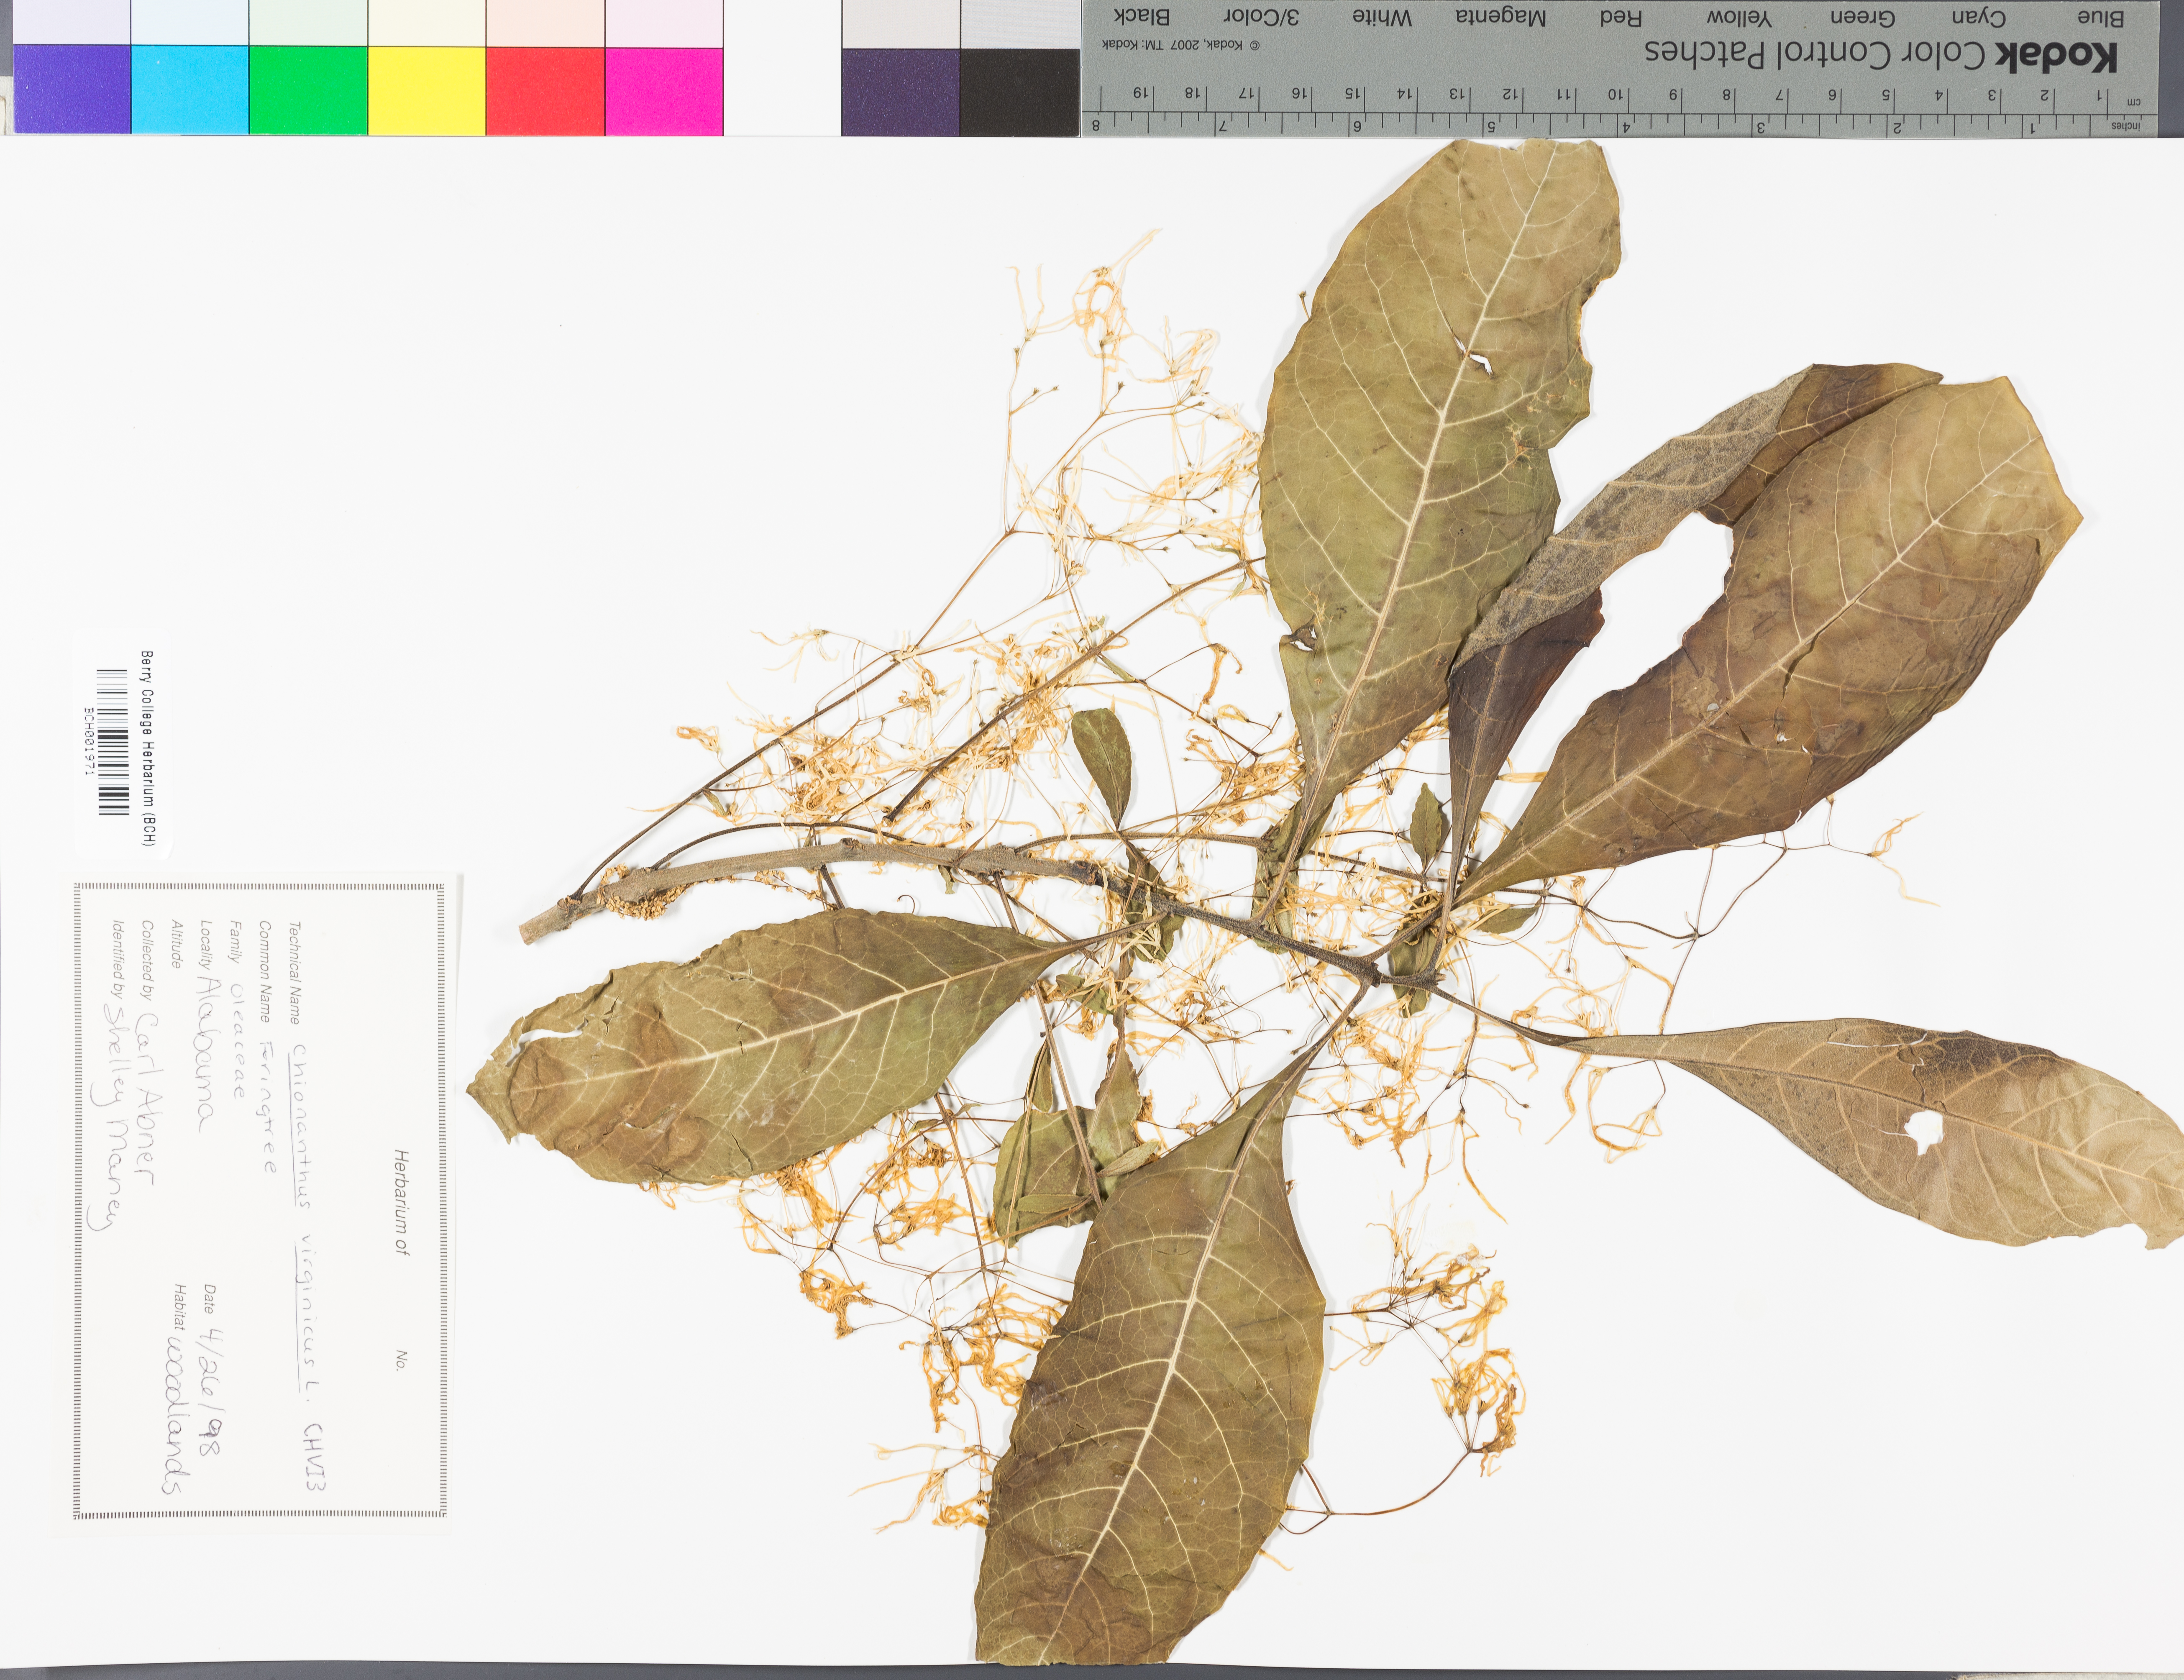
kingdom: Plantae
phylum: Tracheophyta
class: Magnoliopsida
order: Lamiales
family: Oleaceae
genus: Chionanthus
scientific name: Chionanthus virginicus
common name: American fringetree
